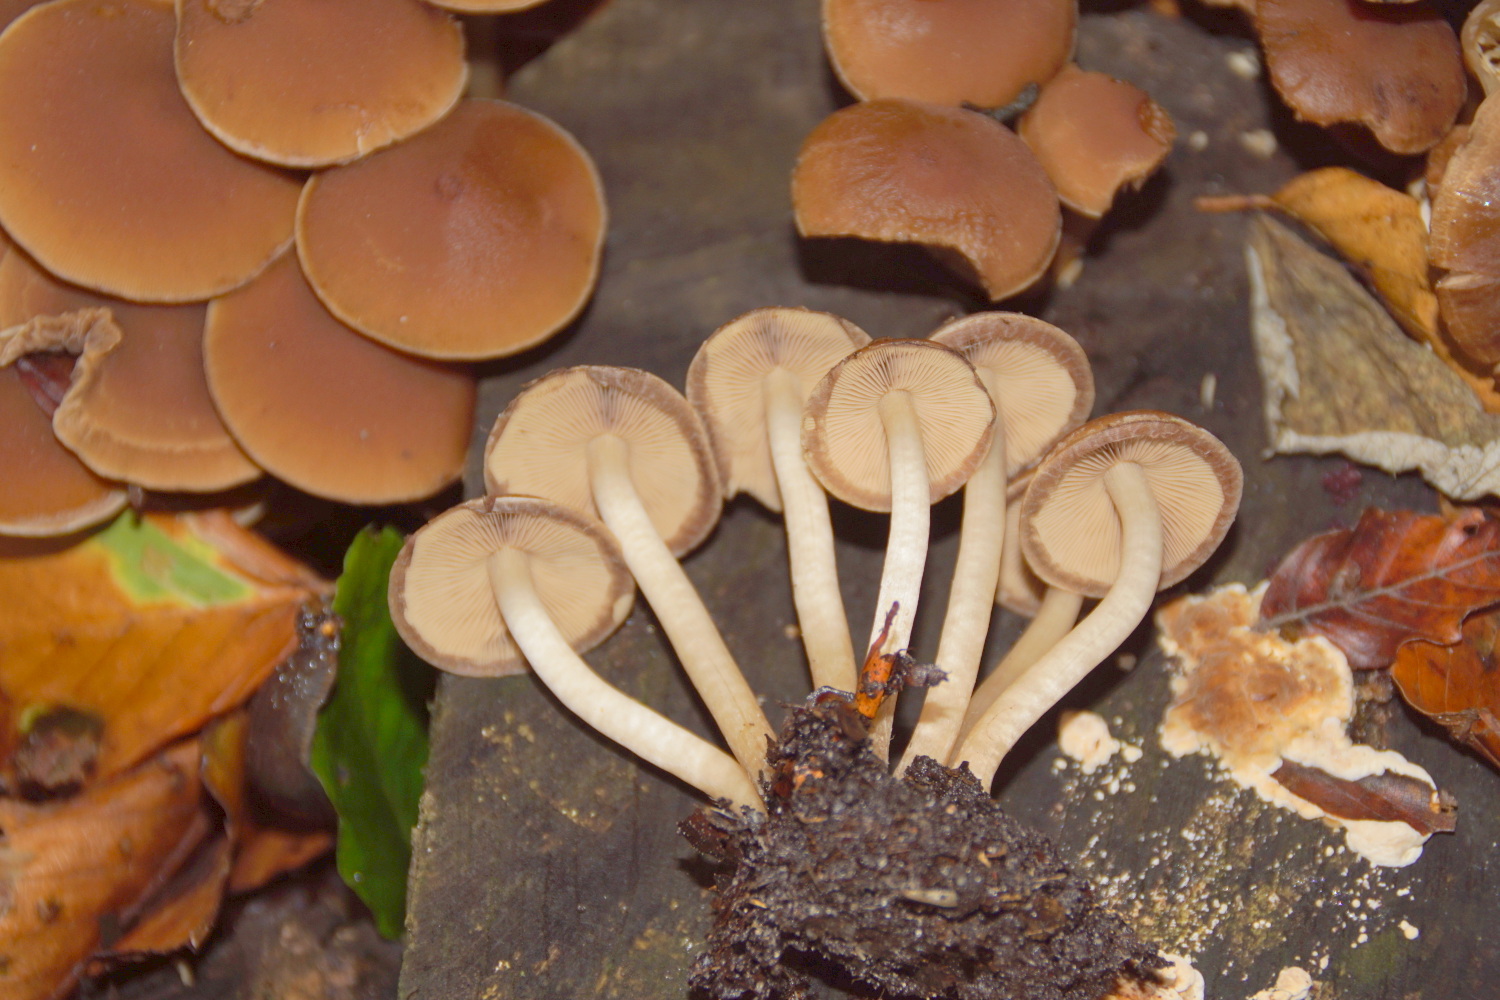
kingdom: Fungi
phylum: Basidiomycota
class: Agaricomycetes
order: Agaricales
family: Psathyrellaceae
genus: Psathyrella
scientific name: Psathyrella piluliformis
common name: lysstokket mørkhat
